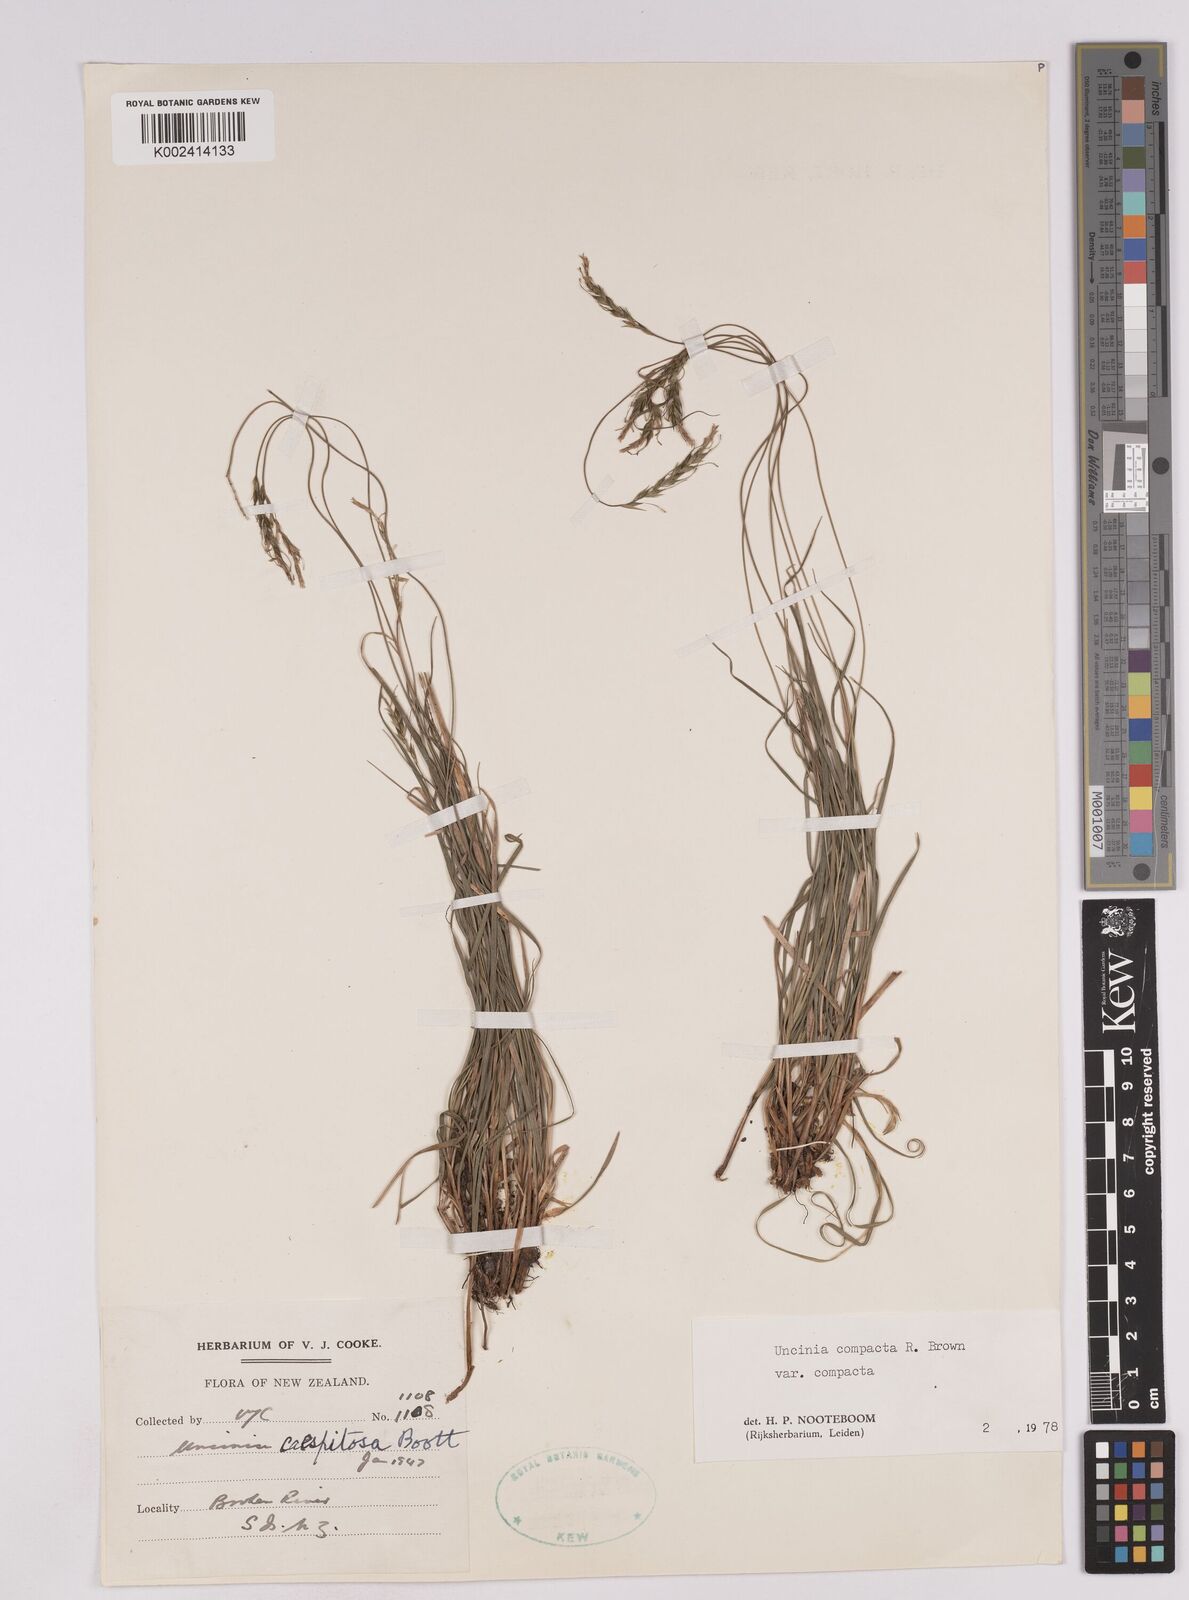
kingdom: Plantae
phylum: Tracheophyta
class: Liliopsida
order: Poales
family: Cyperaceae
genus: Carex
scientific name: Carex austrocompacta
